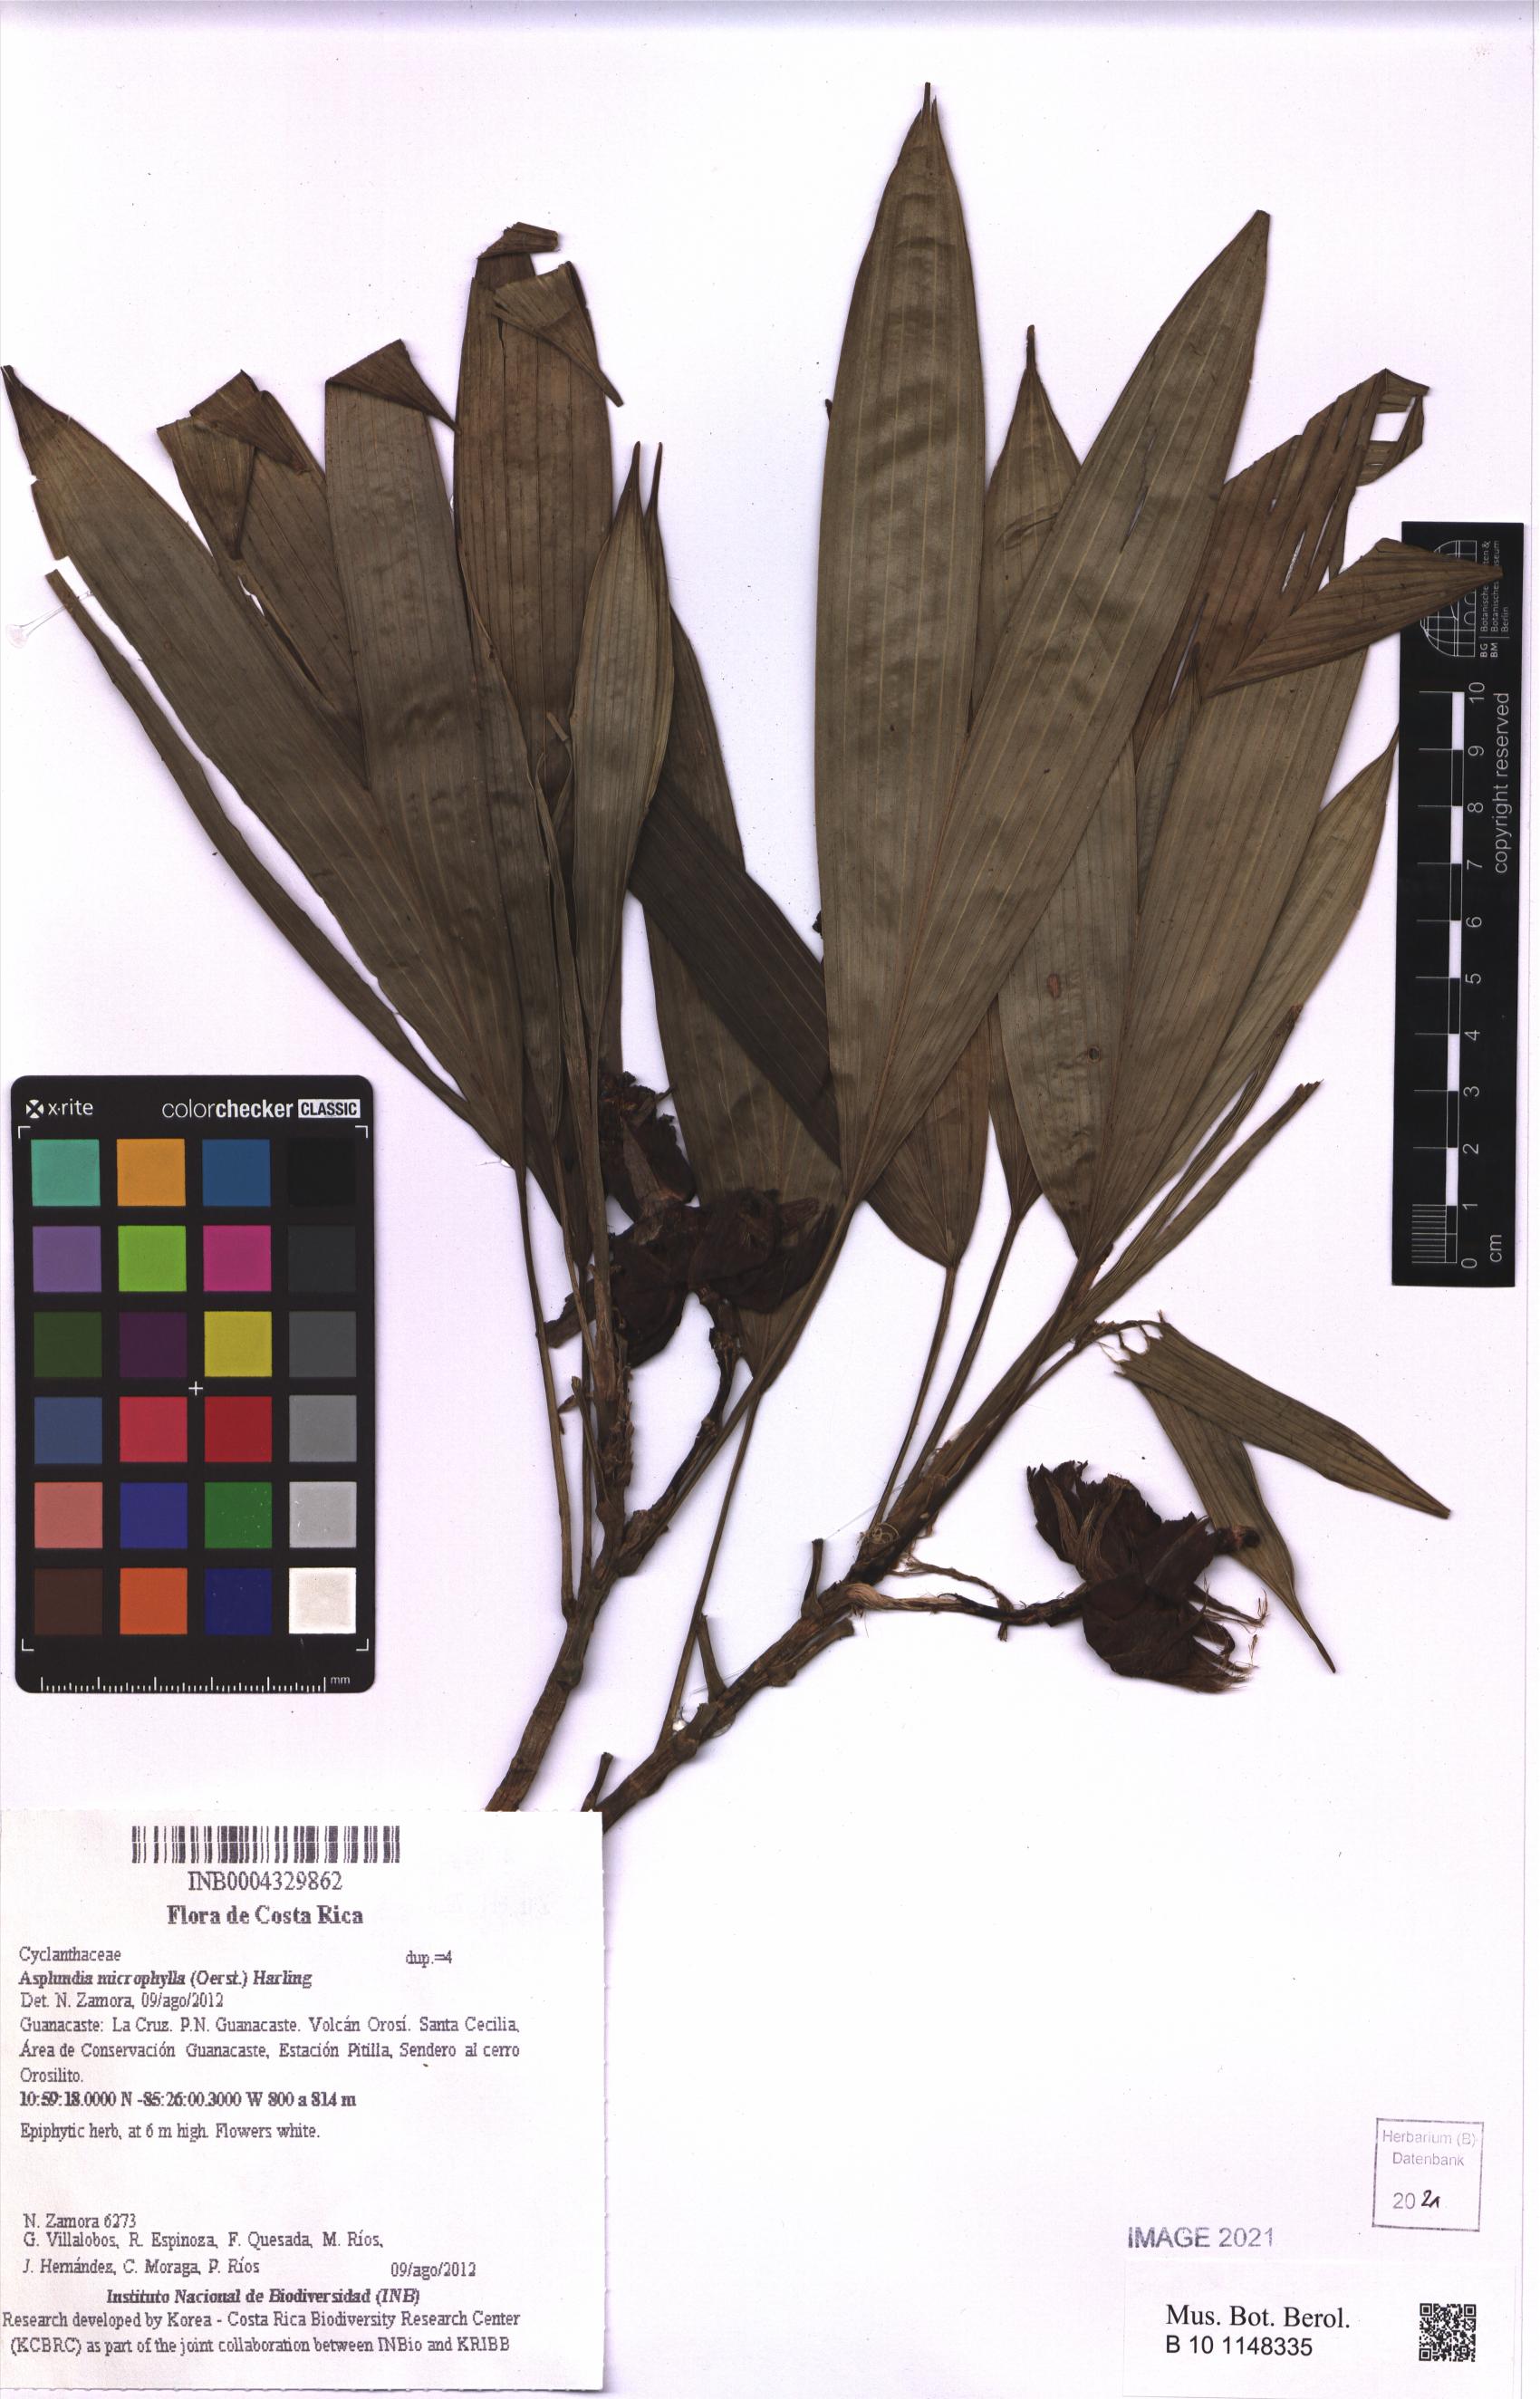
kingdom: Plantae
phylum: Tracheophyta
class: Liliopsida
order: Pandanales
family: Cyclanthaceae
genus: Asplundia
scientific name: Asplundia microphylla
